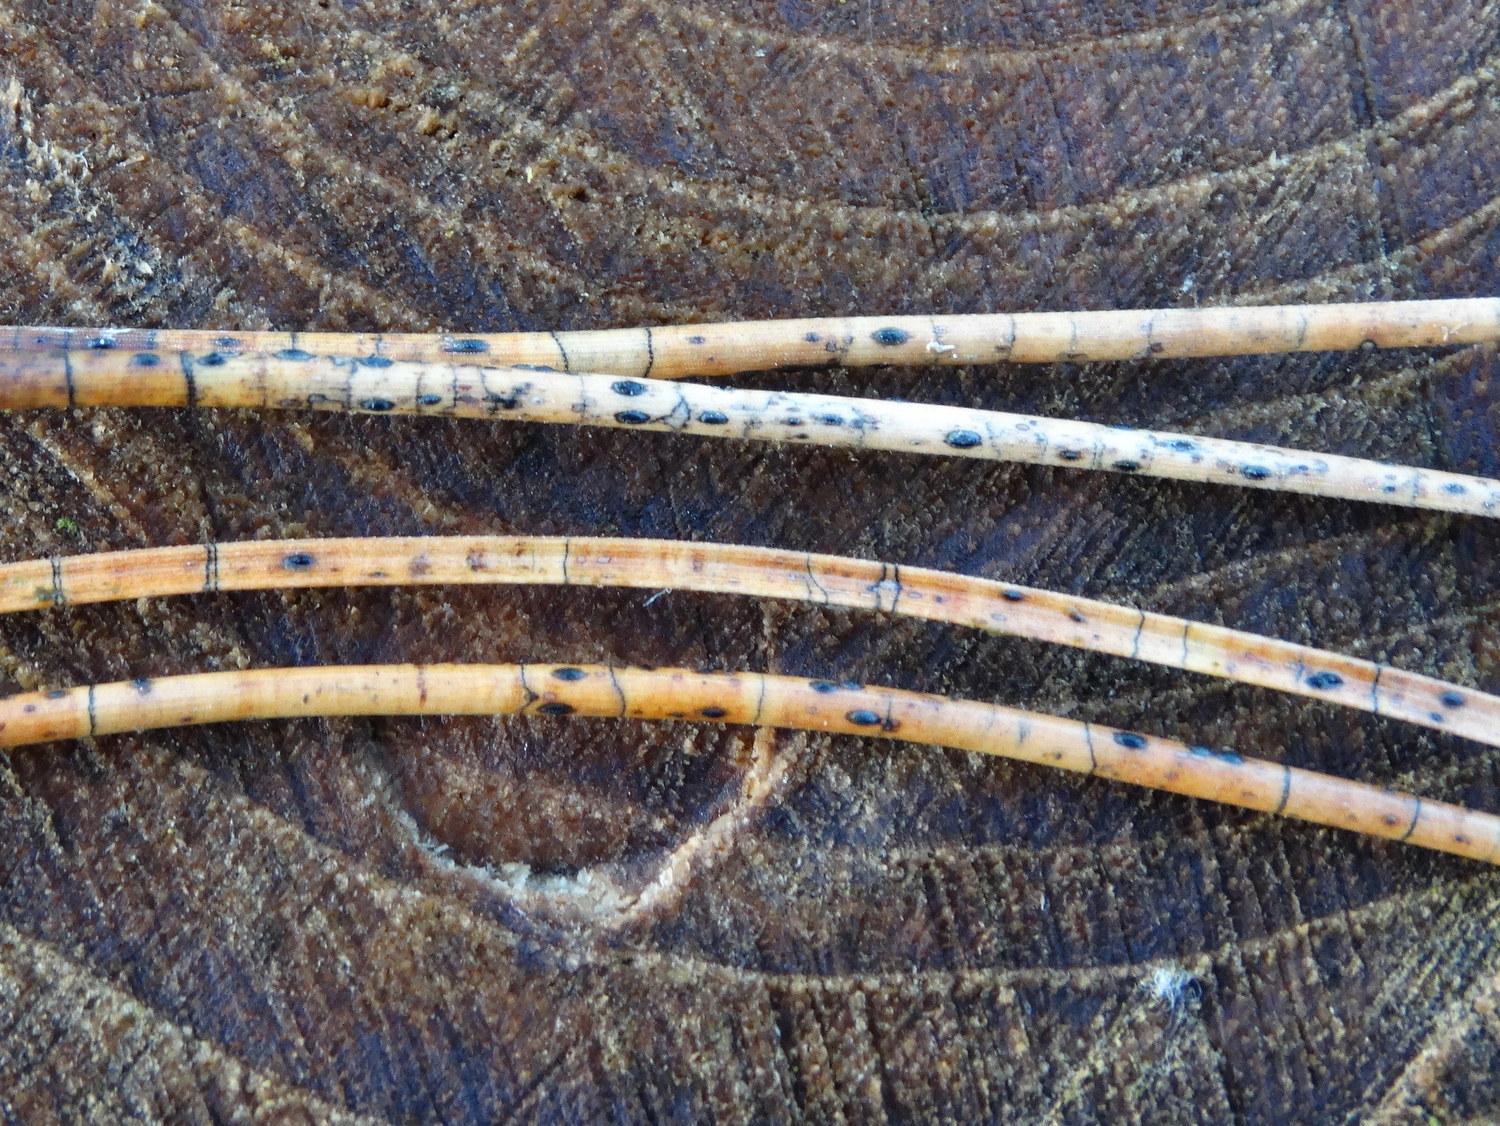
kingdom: Fungi
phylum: Ascomycota
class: Leotiomycetes
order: Rhytismatales
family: Rhytismataceae
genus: Lophodermium
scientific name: Lophodermium pinastri
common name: fyrre-fureplet
